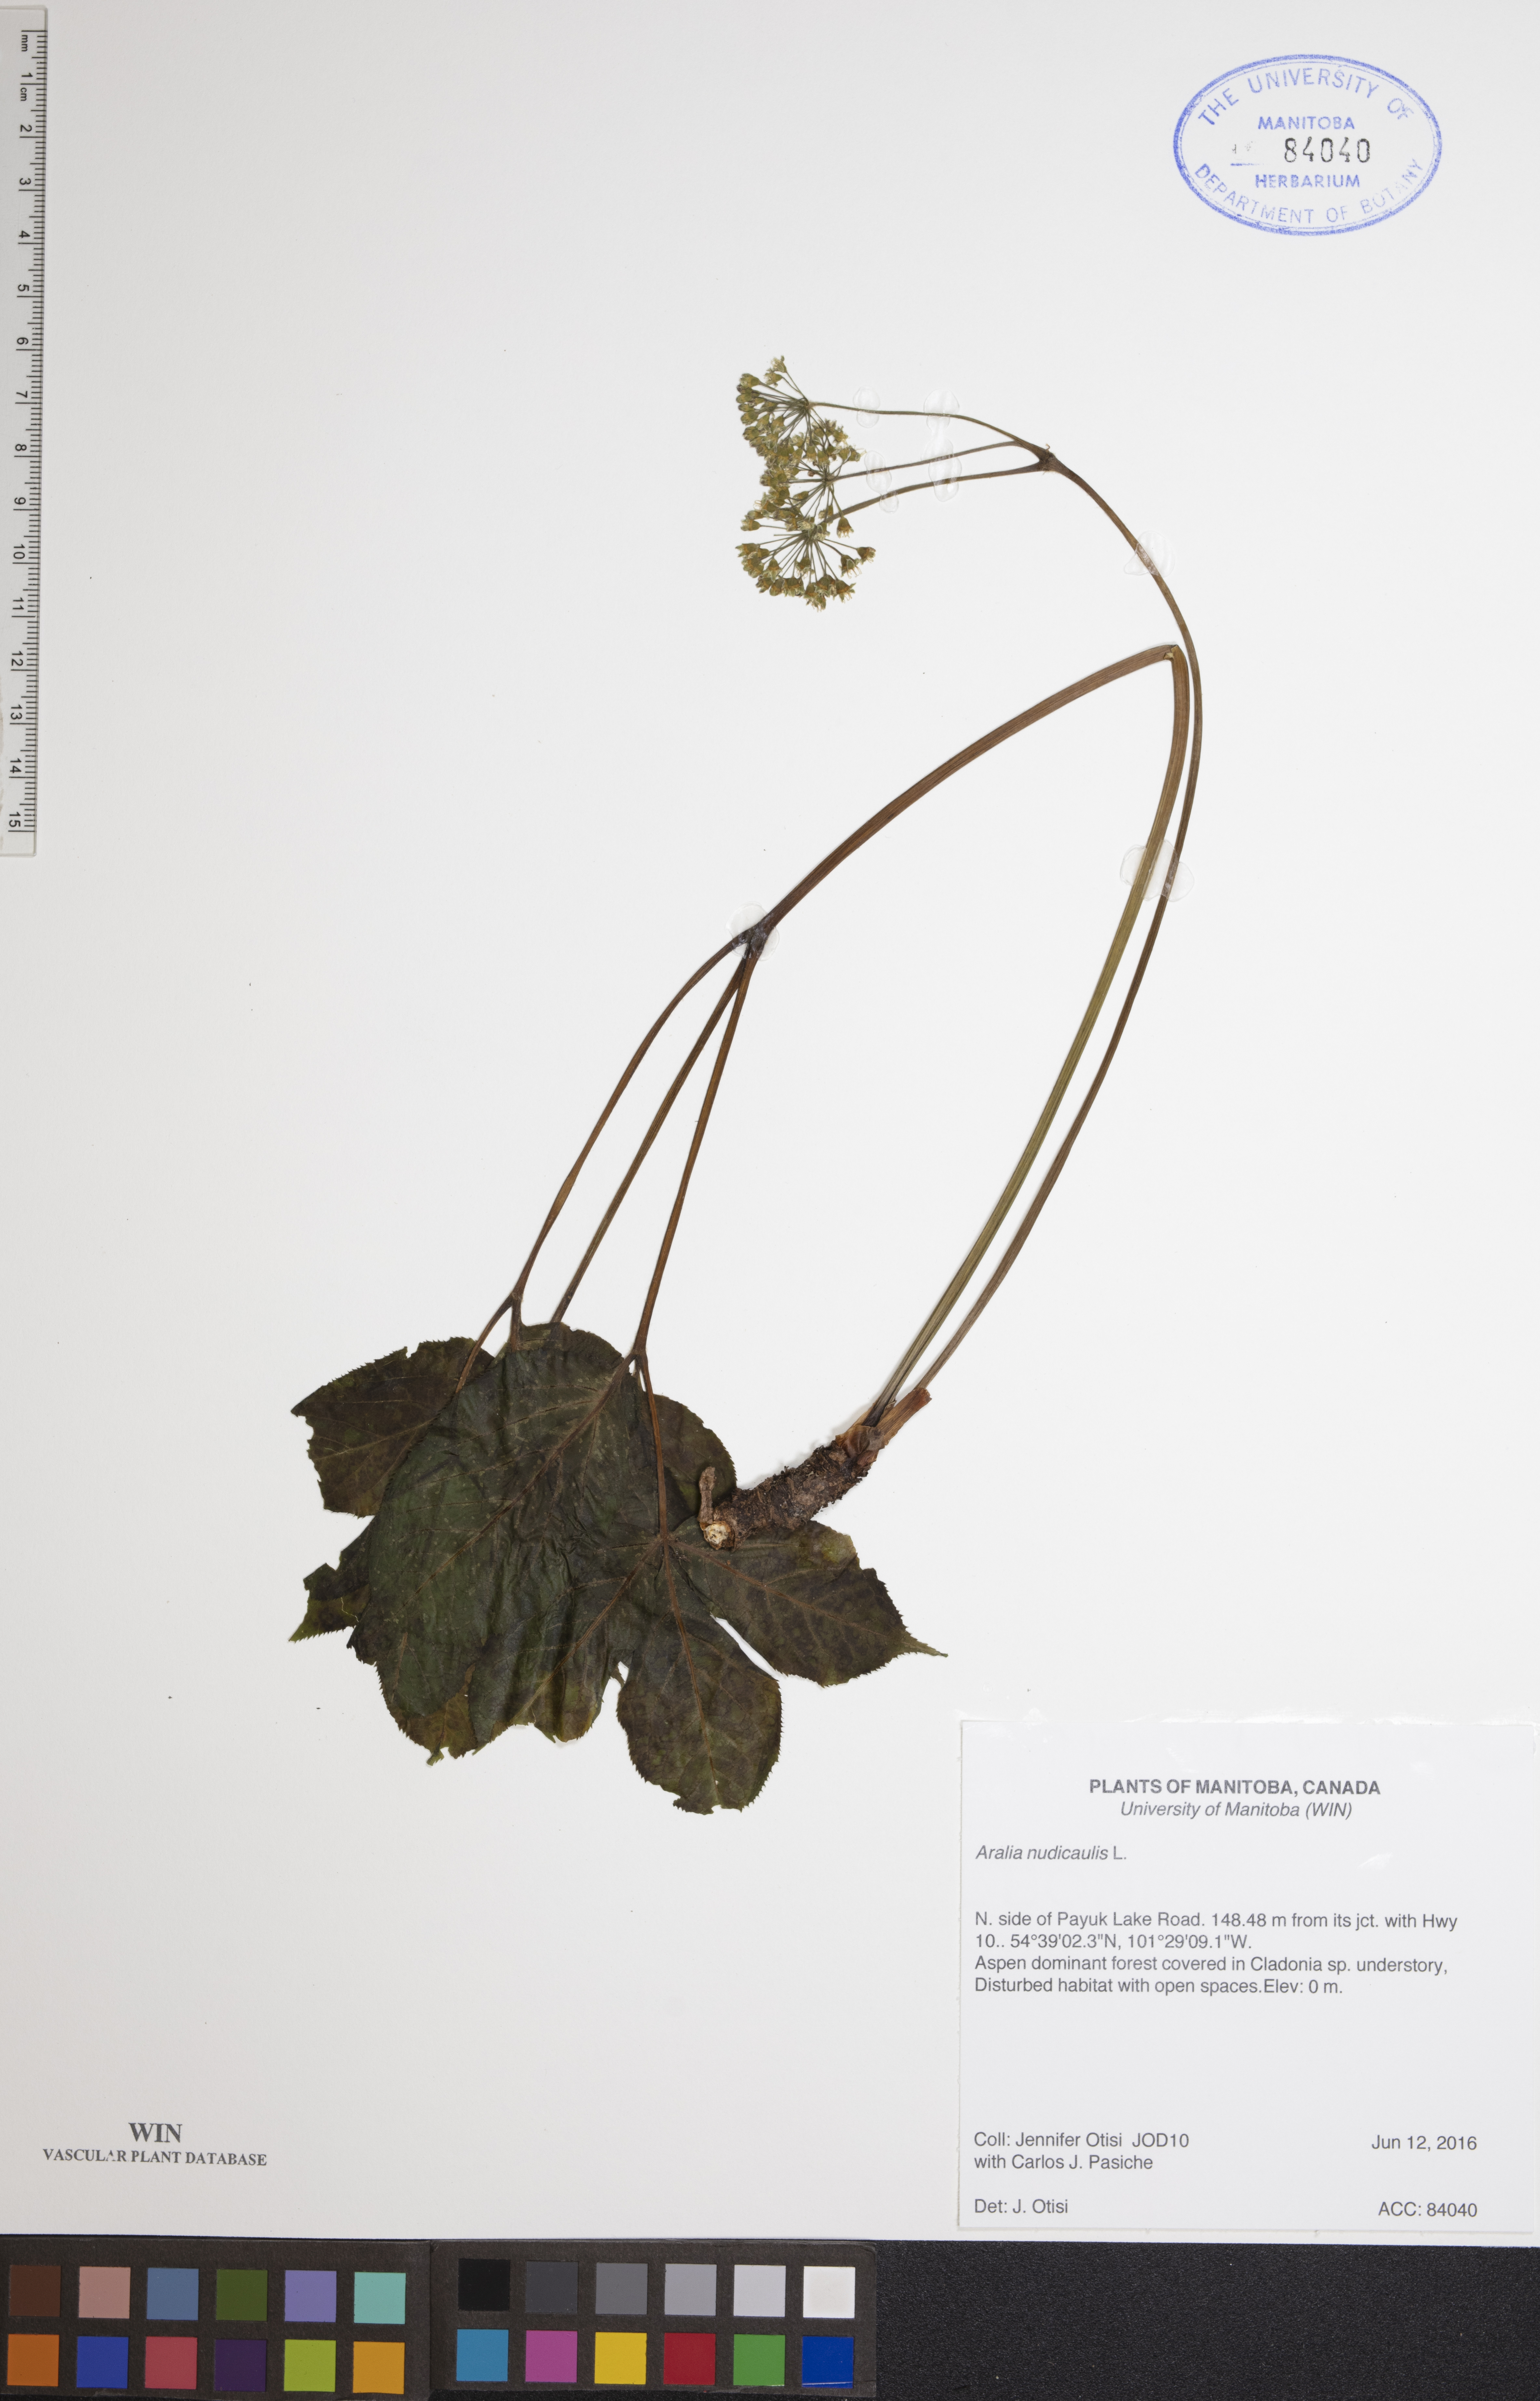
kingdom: Plantae
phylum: Tracheophyta
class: Magnoliopsida
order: Apiales
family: Araliaceae
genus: Aralia
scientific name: Aralia nudicaulis
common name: Wild sarsaparilla
